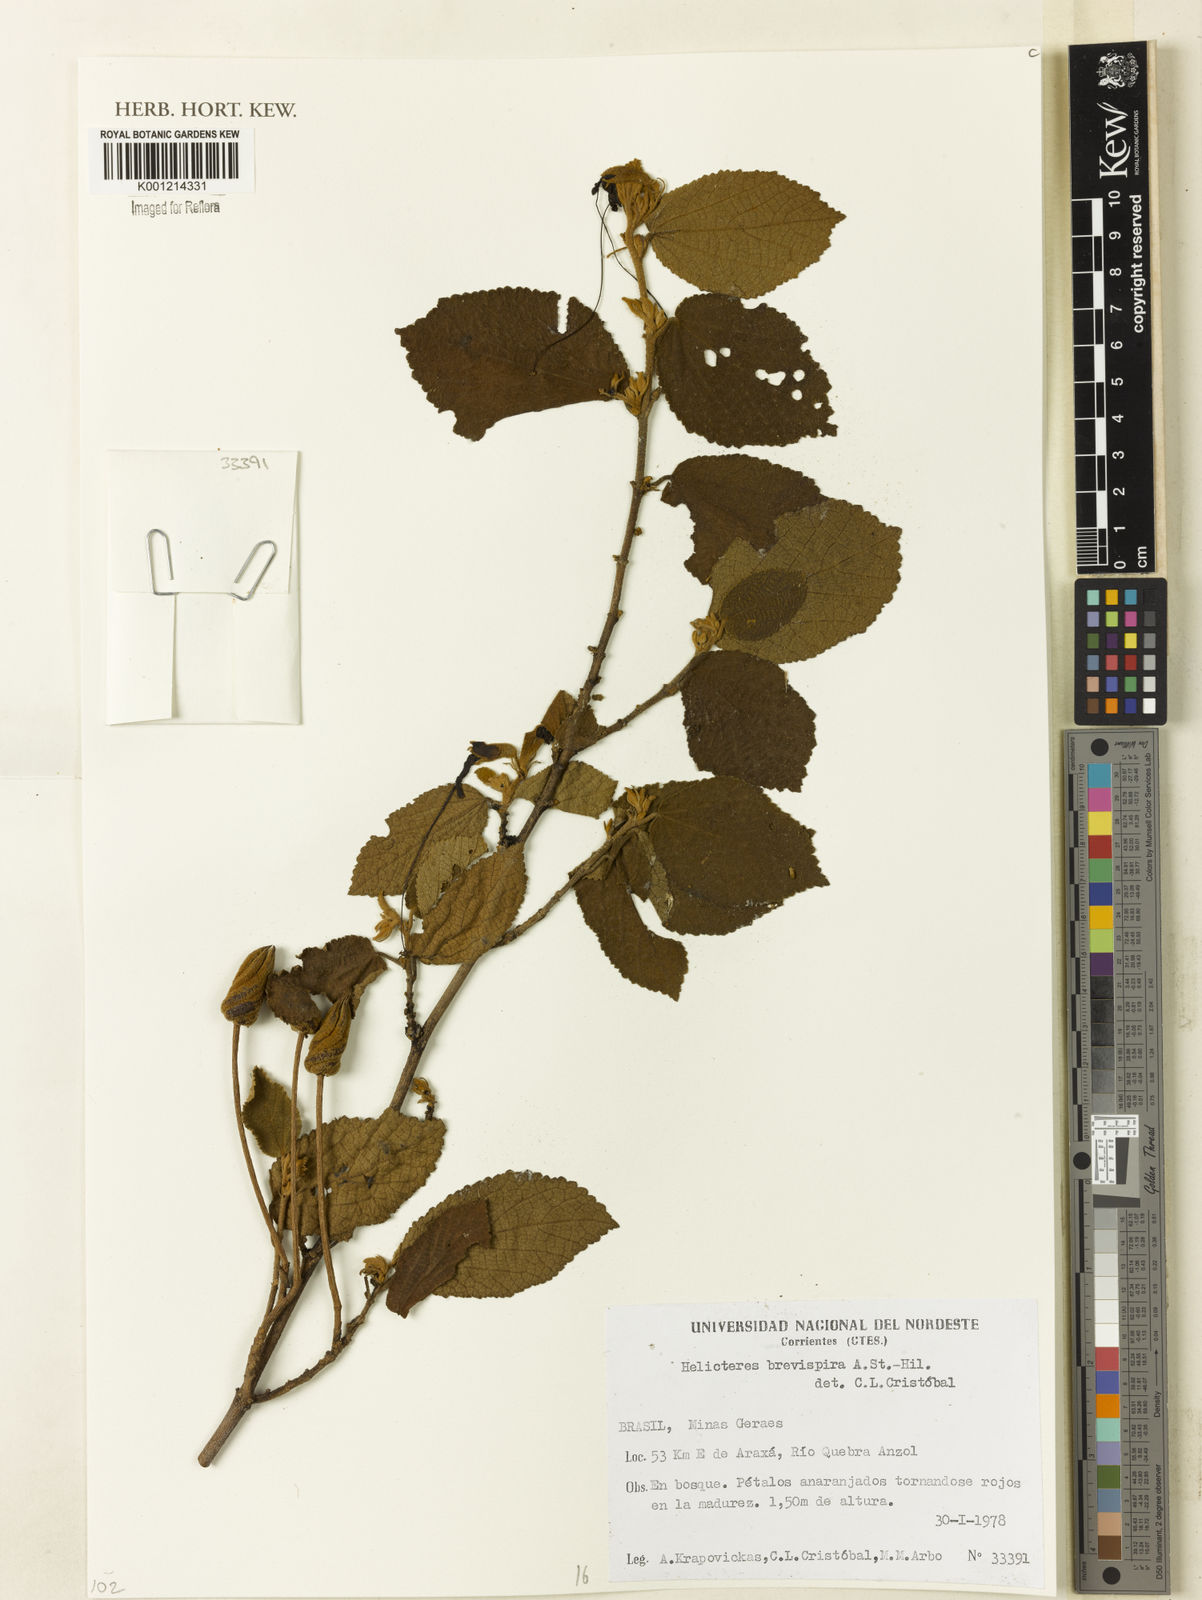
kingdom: Plantae
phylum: Tracheophyta
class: Magnoliopsida
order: Malvales
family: Malvaceae
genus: Helicteres
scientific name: Helicteres
